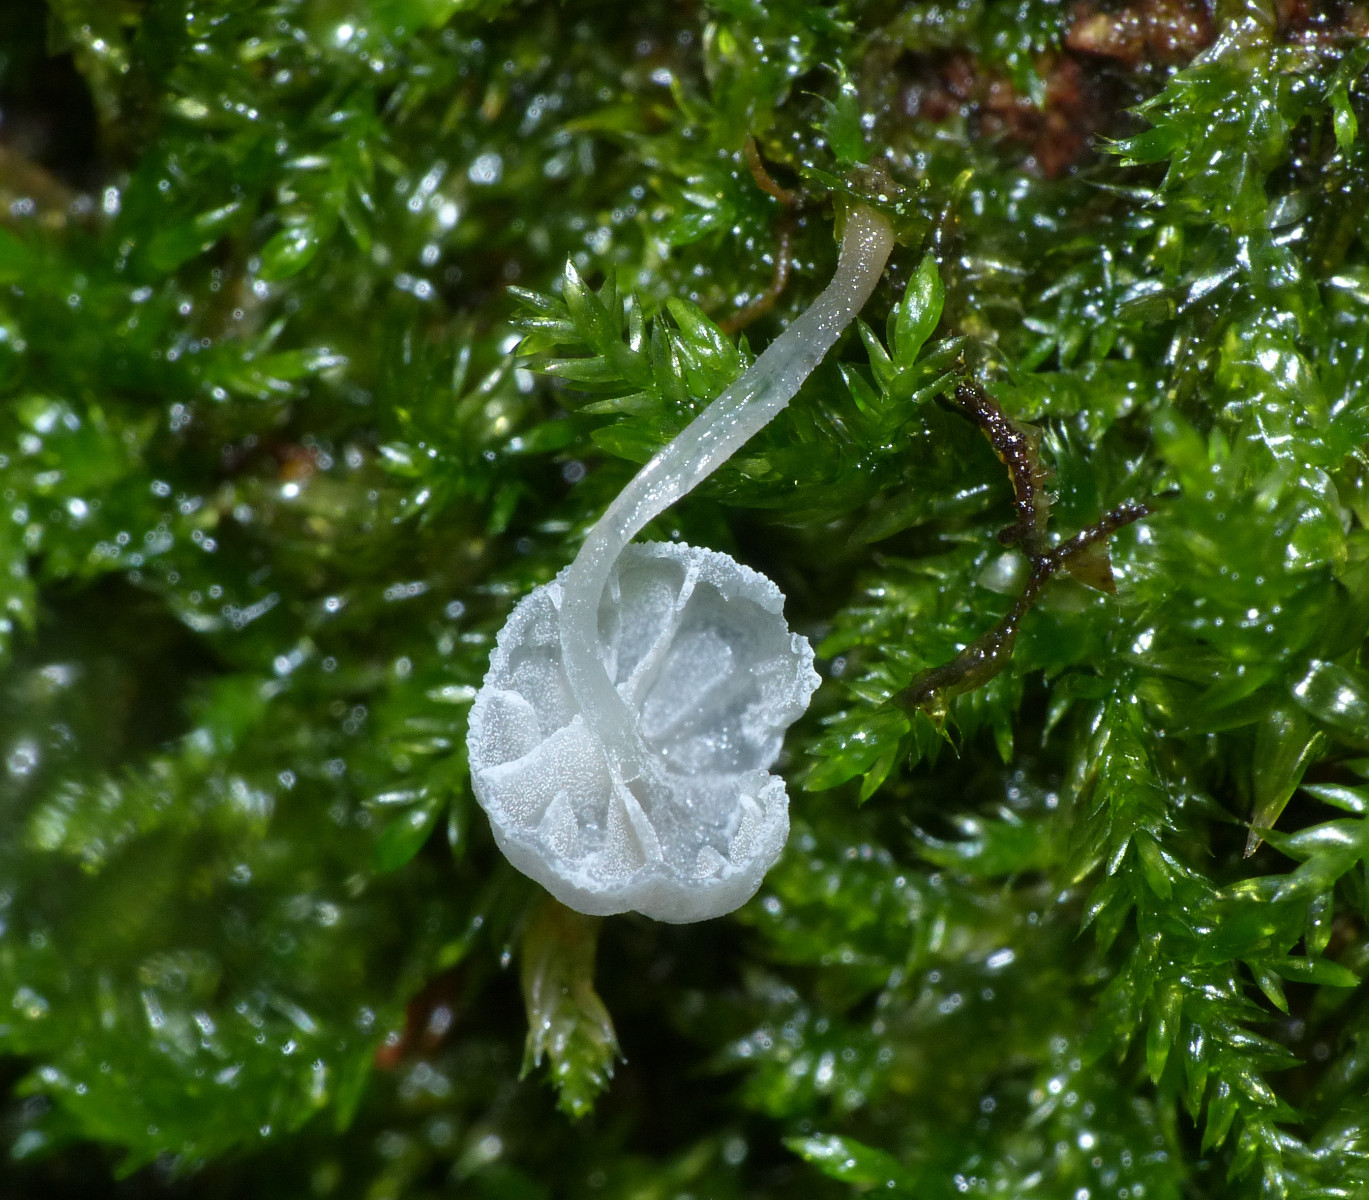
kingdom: Fungi
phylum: Basidiomycota
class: Agaricomycetes
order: Agaricales
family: Mycenaceae
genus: Mycena
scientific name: Mycena
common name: huesvamp
